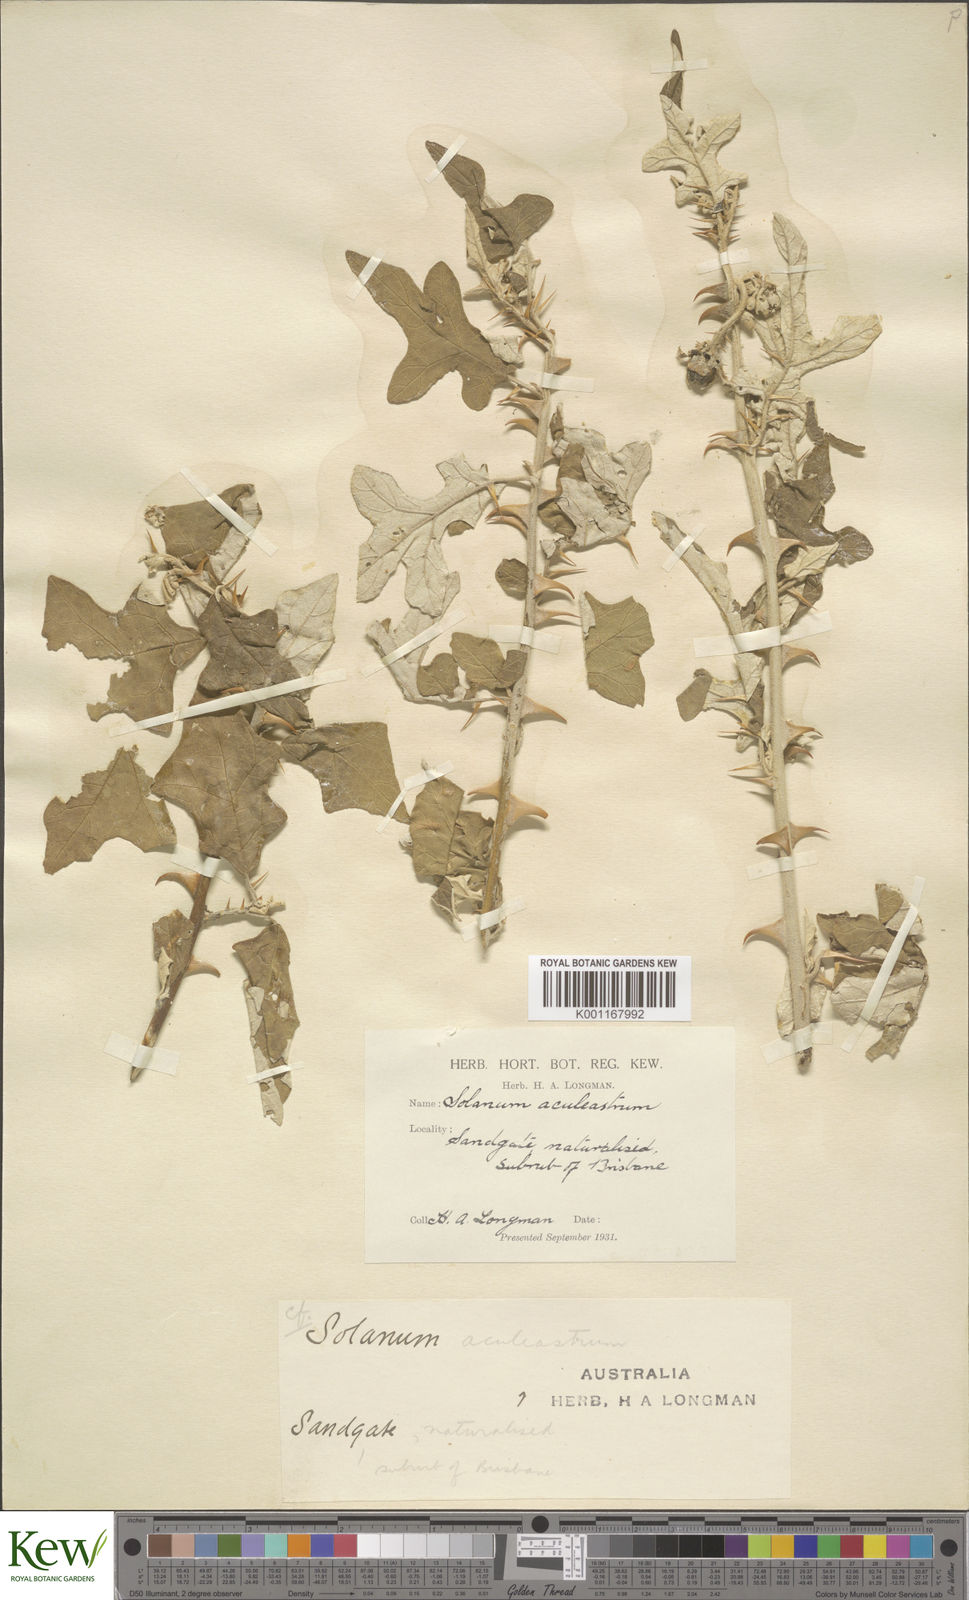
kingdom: Plantae
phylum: Tracheophyta
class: Magnoliopsida
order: Solanales
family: Solanaceae
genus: Solanum
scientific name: Solanum aculeastrum
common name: Goat bitter-apple
